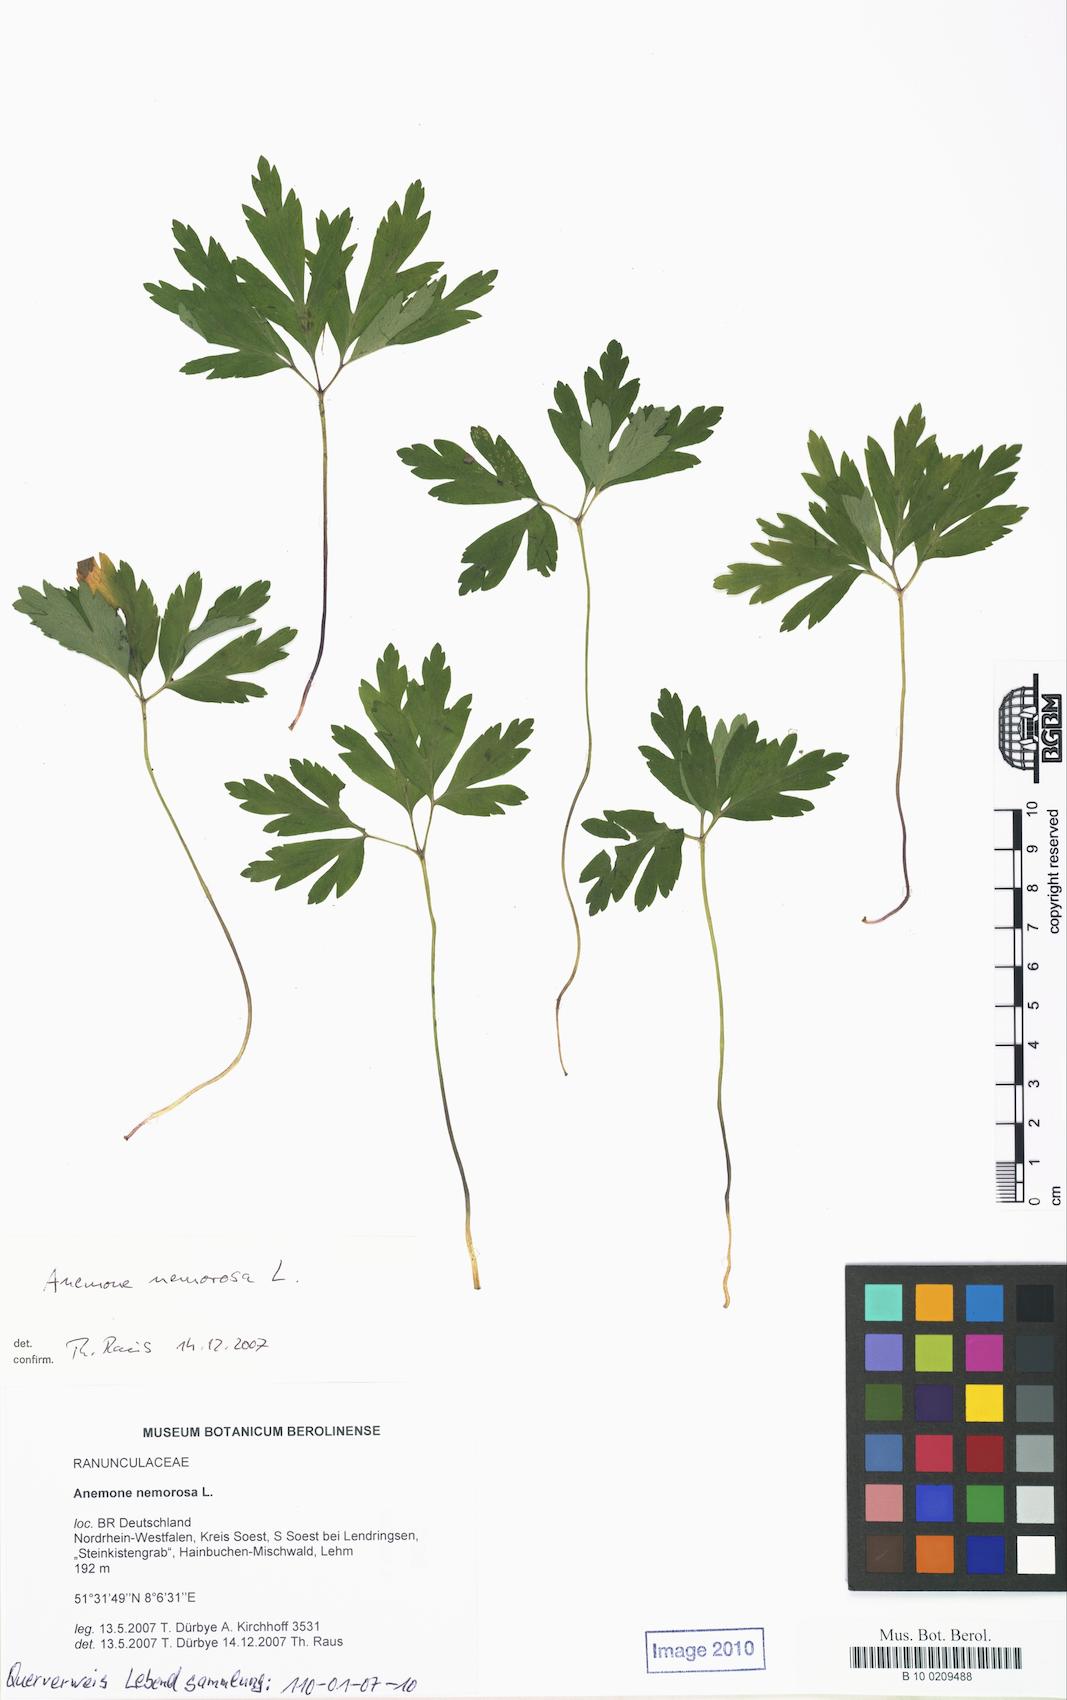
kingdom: Plantae
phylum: Tracheophyta
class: Magnoliopsida
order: Ranunculales
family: Ranunculaceae
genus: Anemone
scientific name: Anemone nemorosa
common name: Wood anemone
